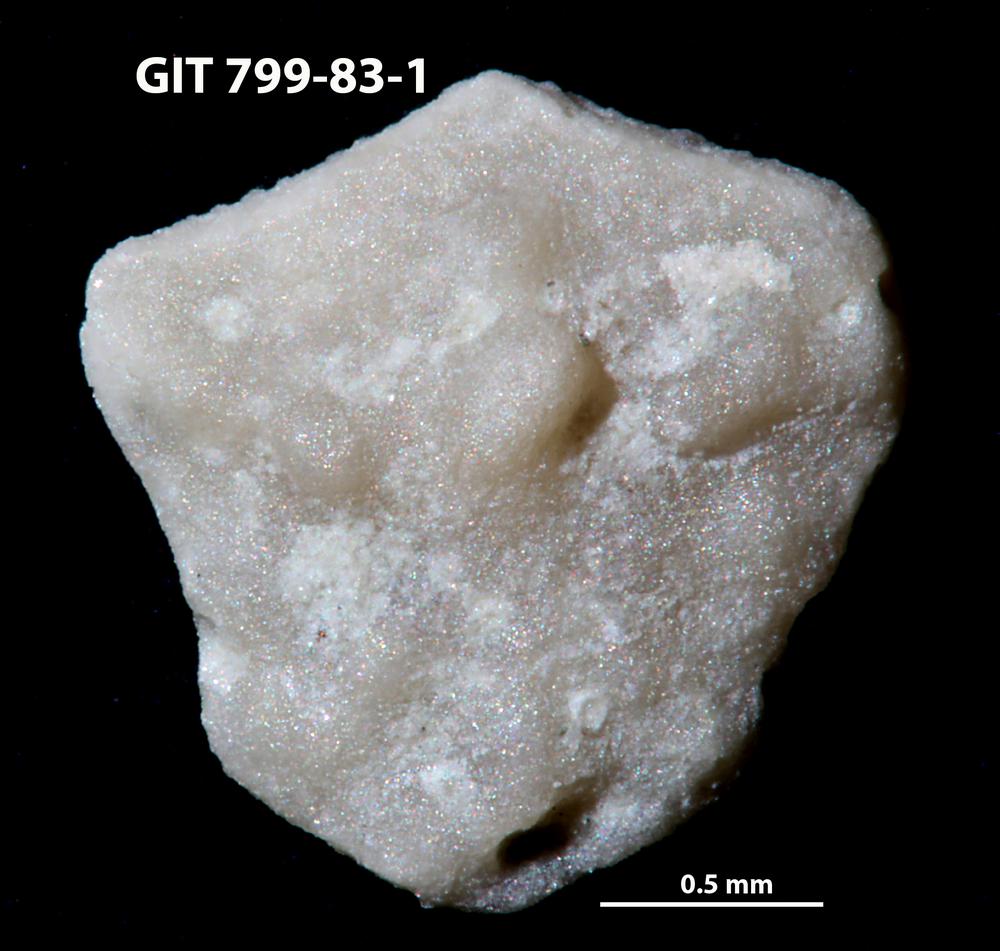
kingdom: Animalia
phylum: Echinodermata
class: Echinoidea
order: Bothriocidaroida
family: Bothriocidaridae
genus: Neobothriocidaris
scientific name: Neobothriocidaris
